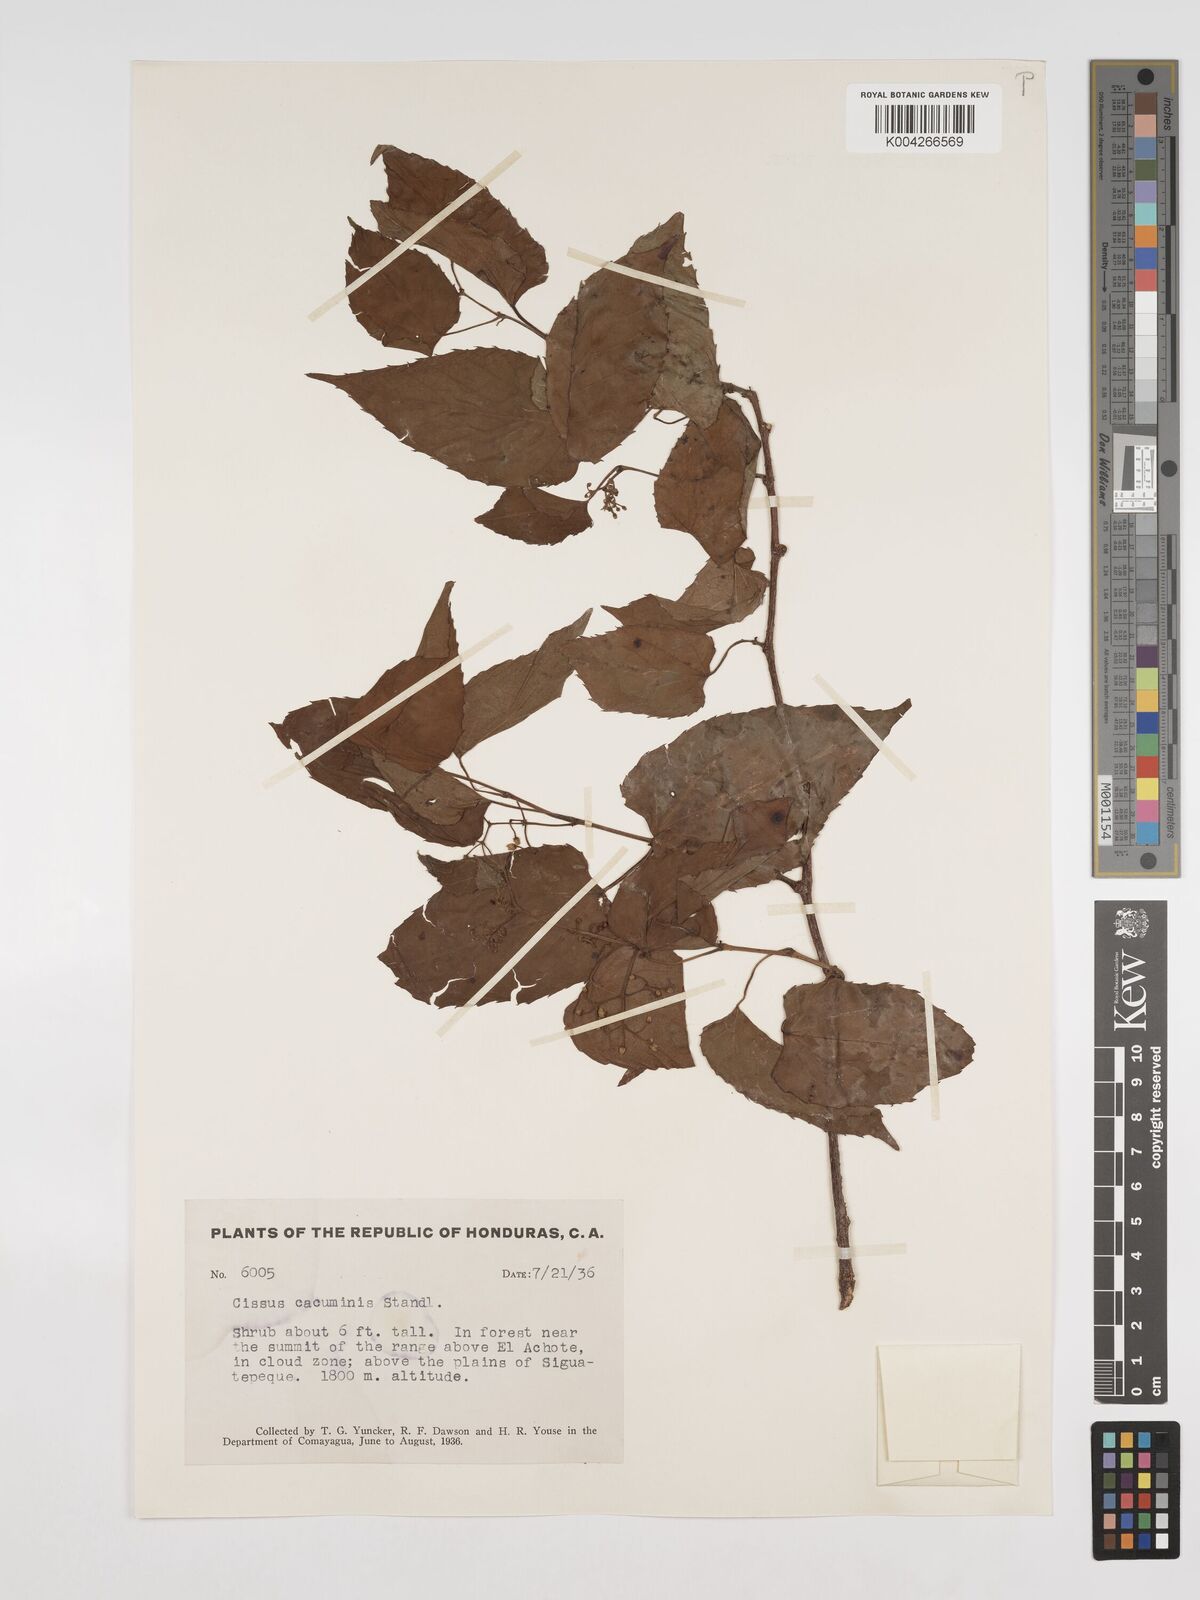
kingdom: Plantae
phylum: Tracheophyta
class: Magnoliopsida
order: Vitales
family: Vitaceae
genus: Cissus
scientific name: Cissus cacuminis
